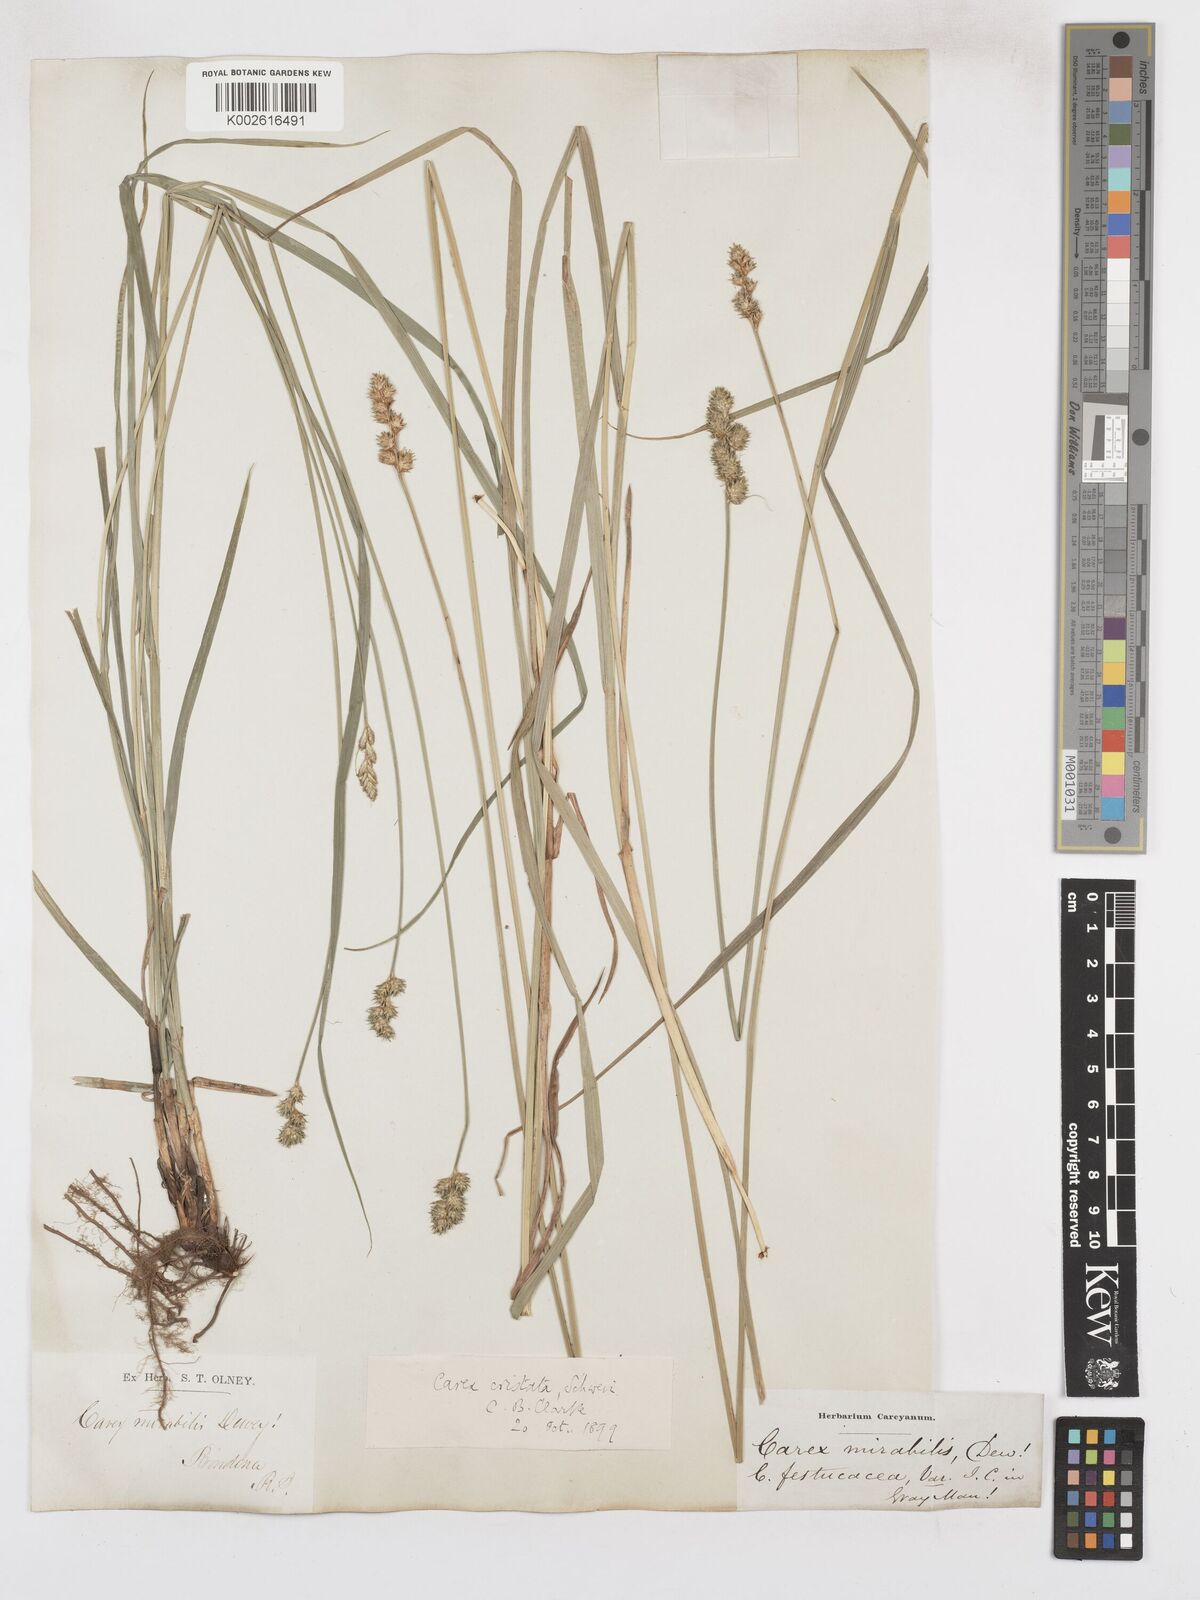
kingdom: Plantae
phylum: Tracheophyta
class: Liliopsida
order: Poales
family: Cyperaceae
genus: Carex
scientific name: Carex cristatella
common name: Crested oval sedge
